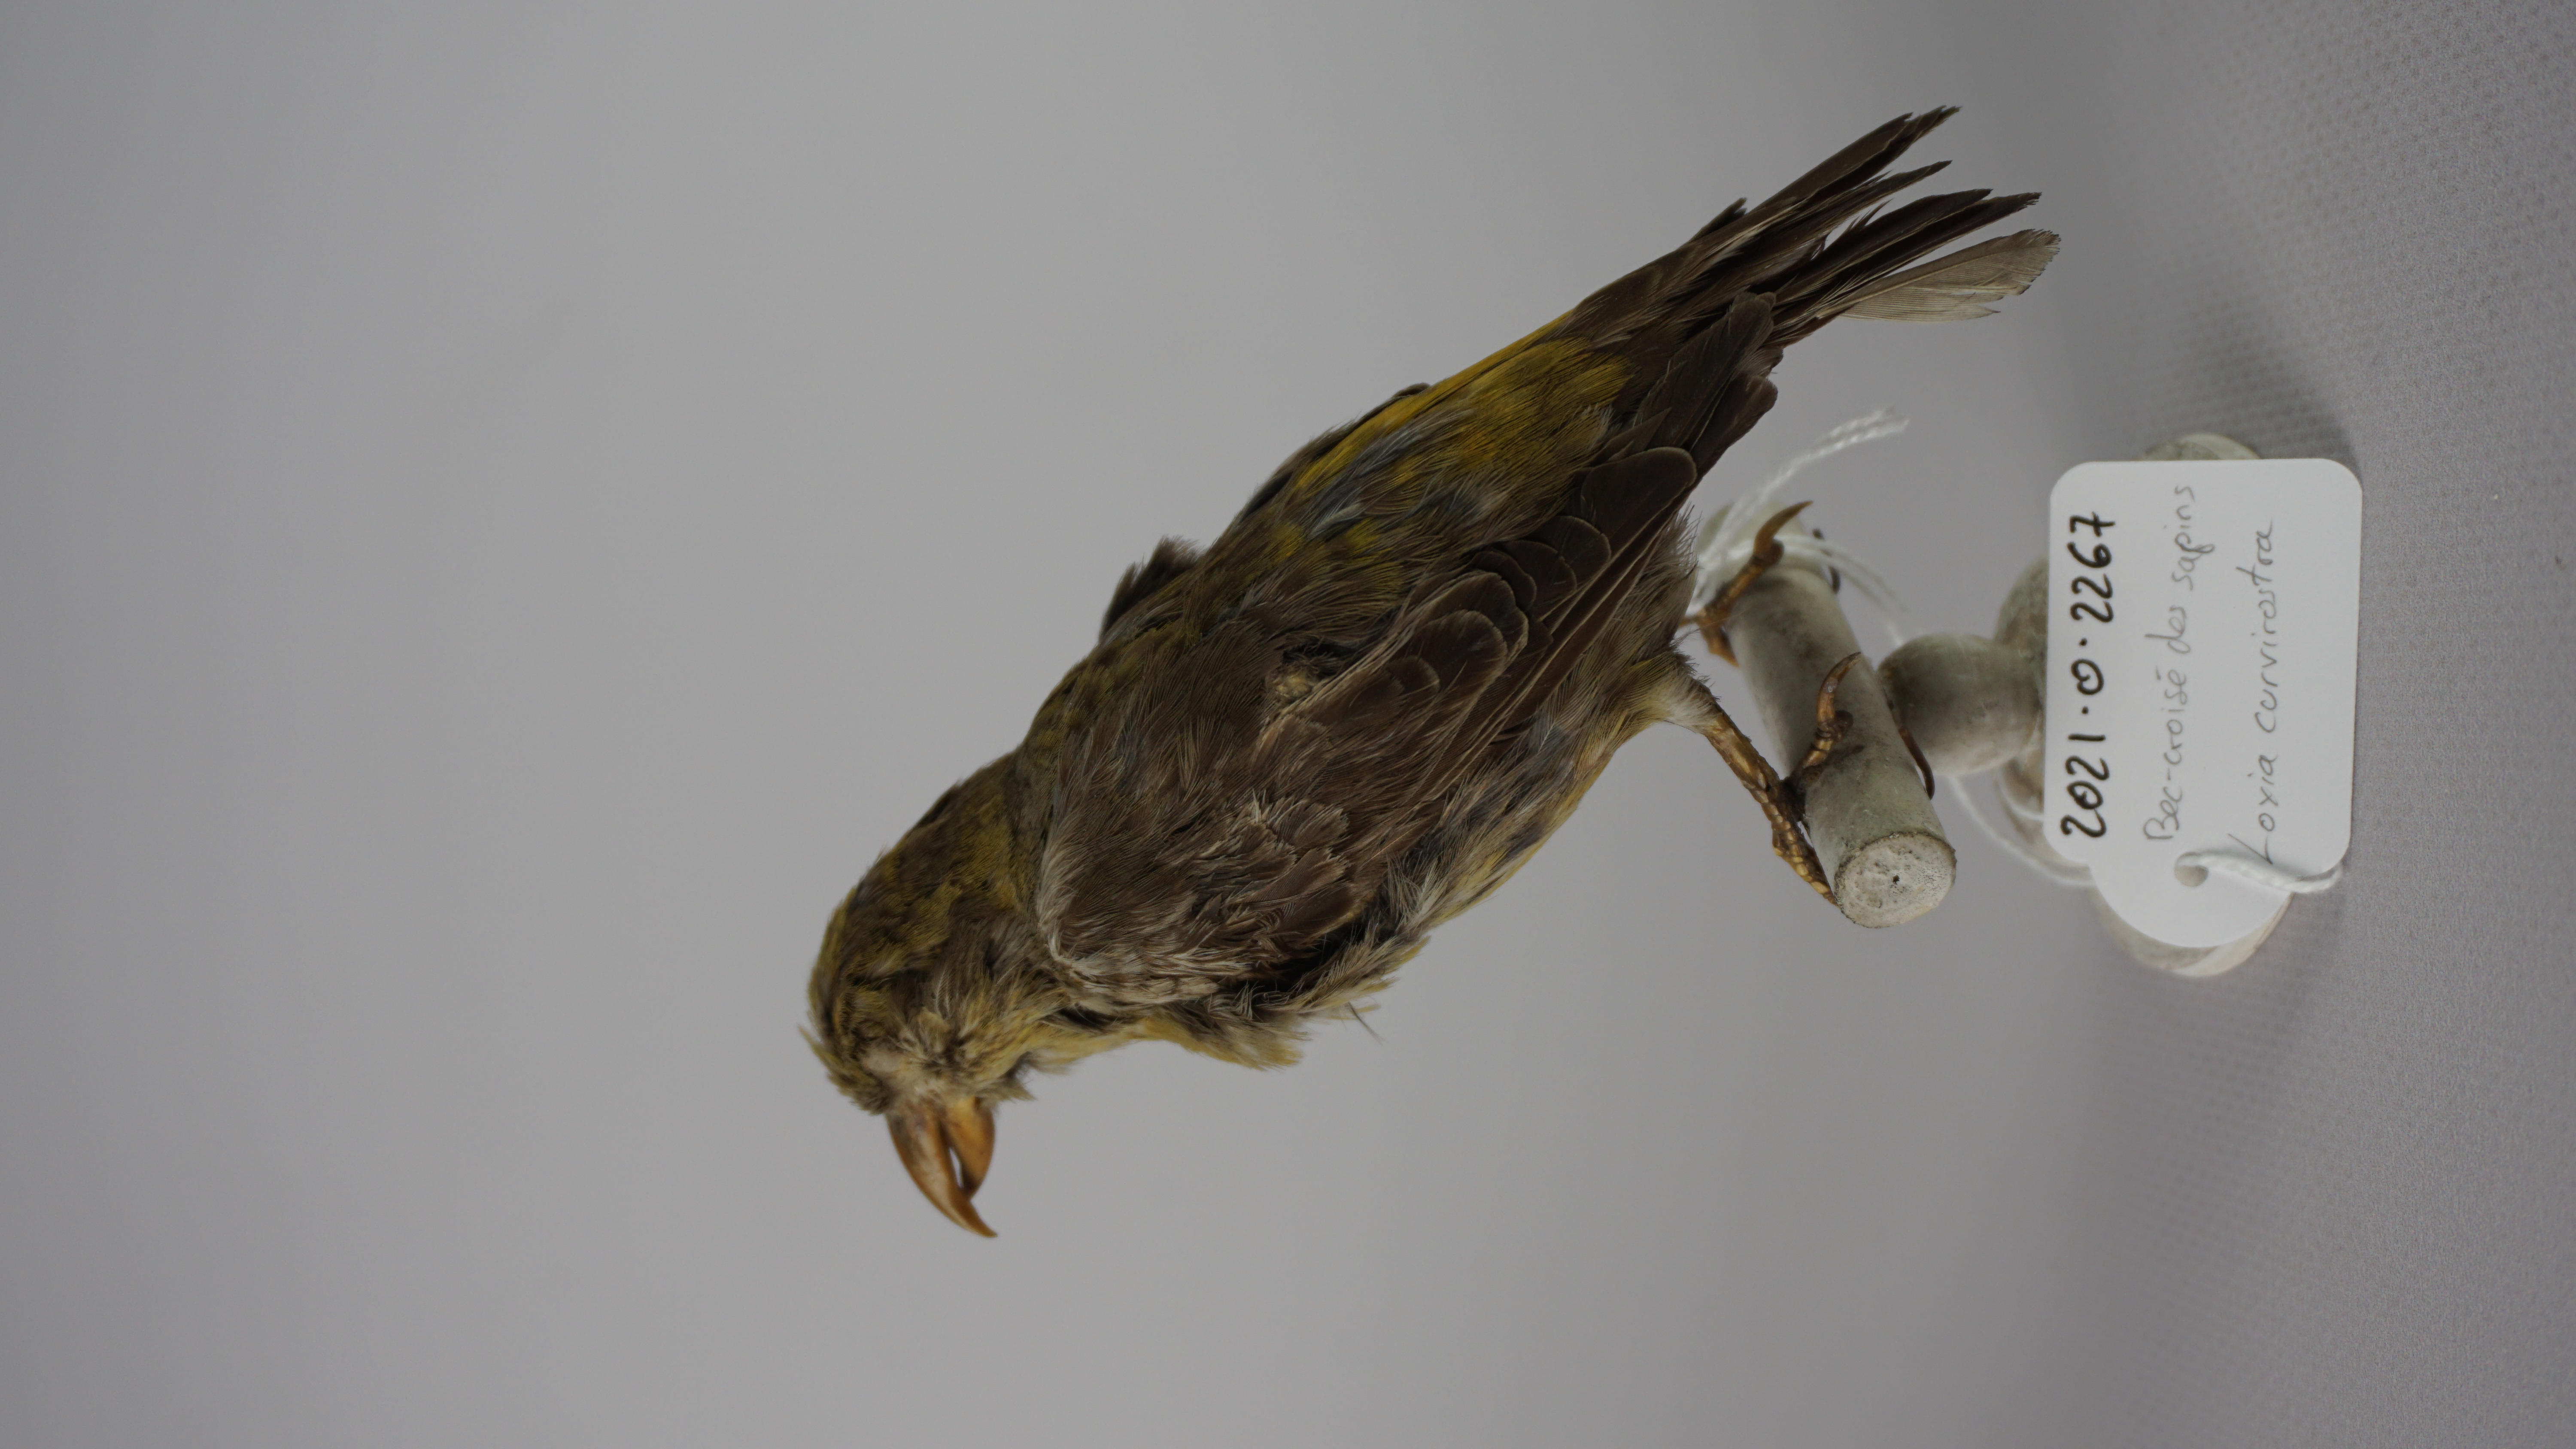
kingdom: Animalia
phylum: Chordata
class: Aves
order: Passeriformes
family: Fringillidae
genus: Loxia
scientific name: Loxia curvirostra
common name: Red crossbill
